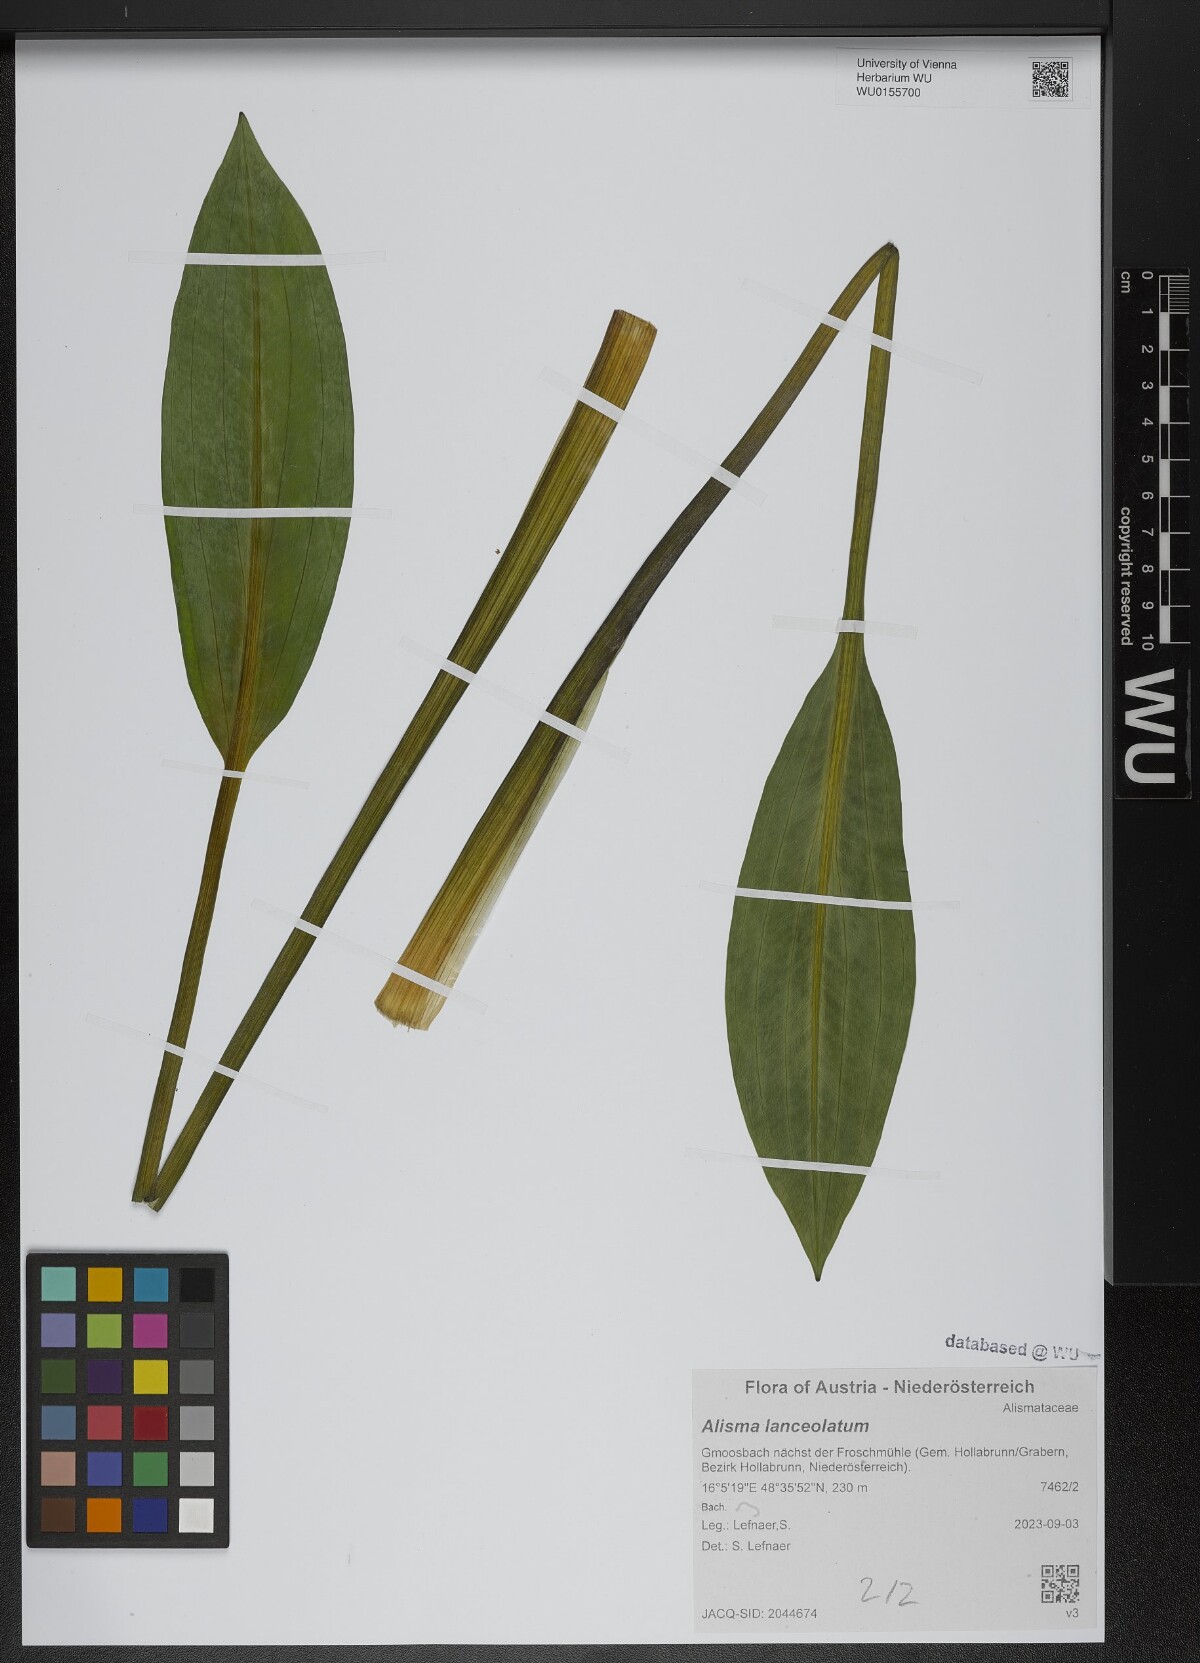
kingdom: Plantae
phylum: Tracheophyta
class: Liliopsida
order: Alismatales
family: Alismataceae
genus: Alisma
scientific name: Alisma lanceolatum
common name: Narrow-leaved water-plantain
